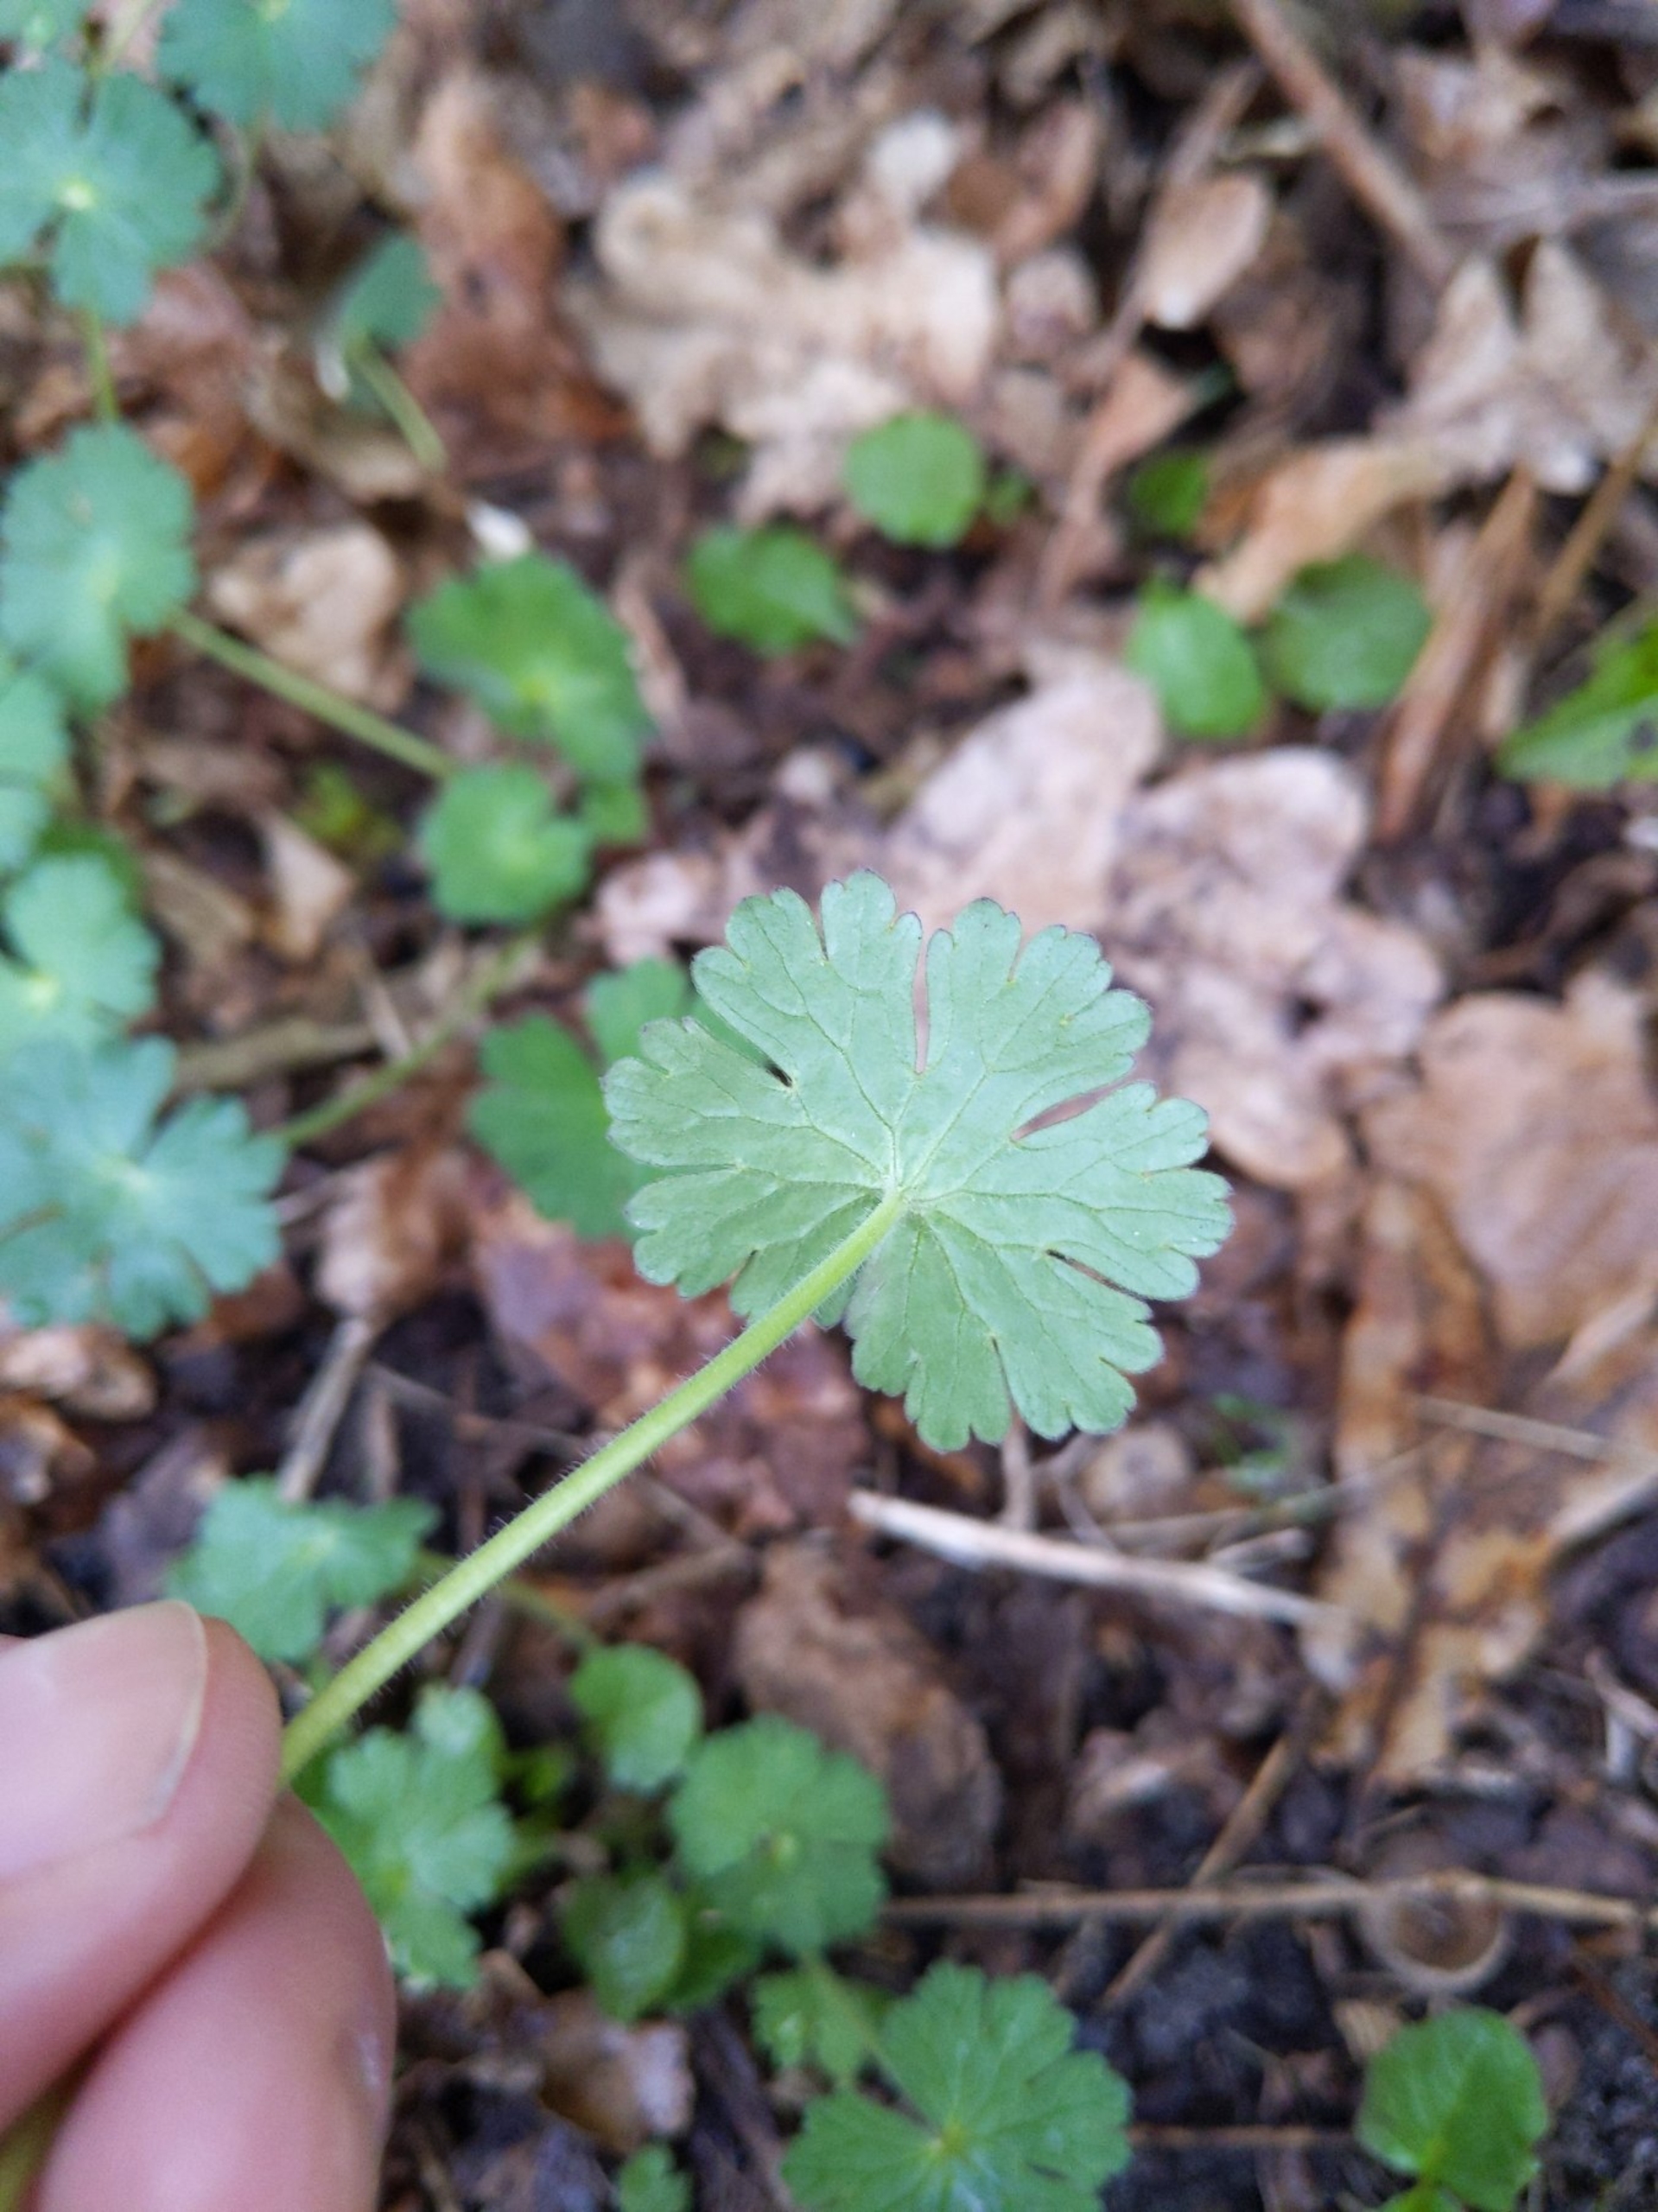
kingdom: Plantae
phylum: Tracheophyta
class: Magnoliopsida
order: Geraniales
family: Geraniaceae
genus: Geranium
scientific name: Geranium molle
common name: Blød storkenæb
